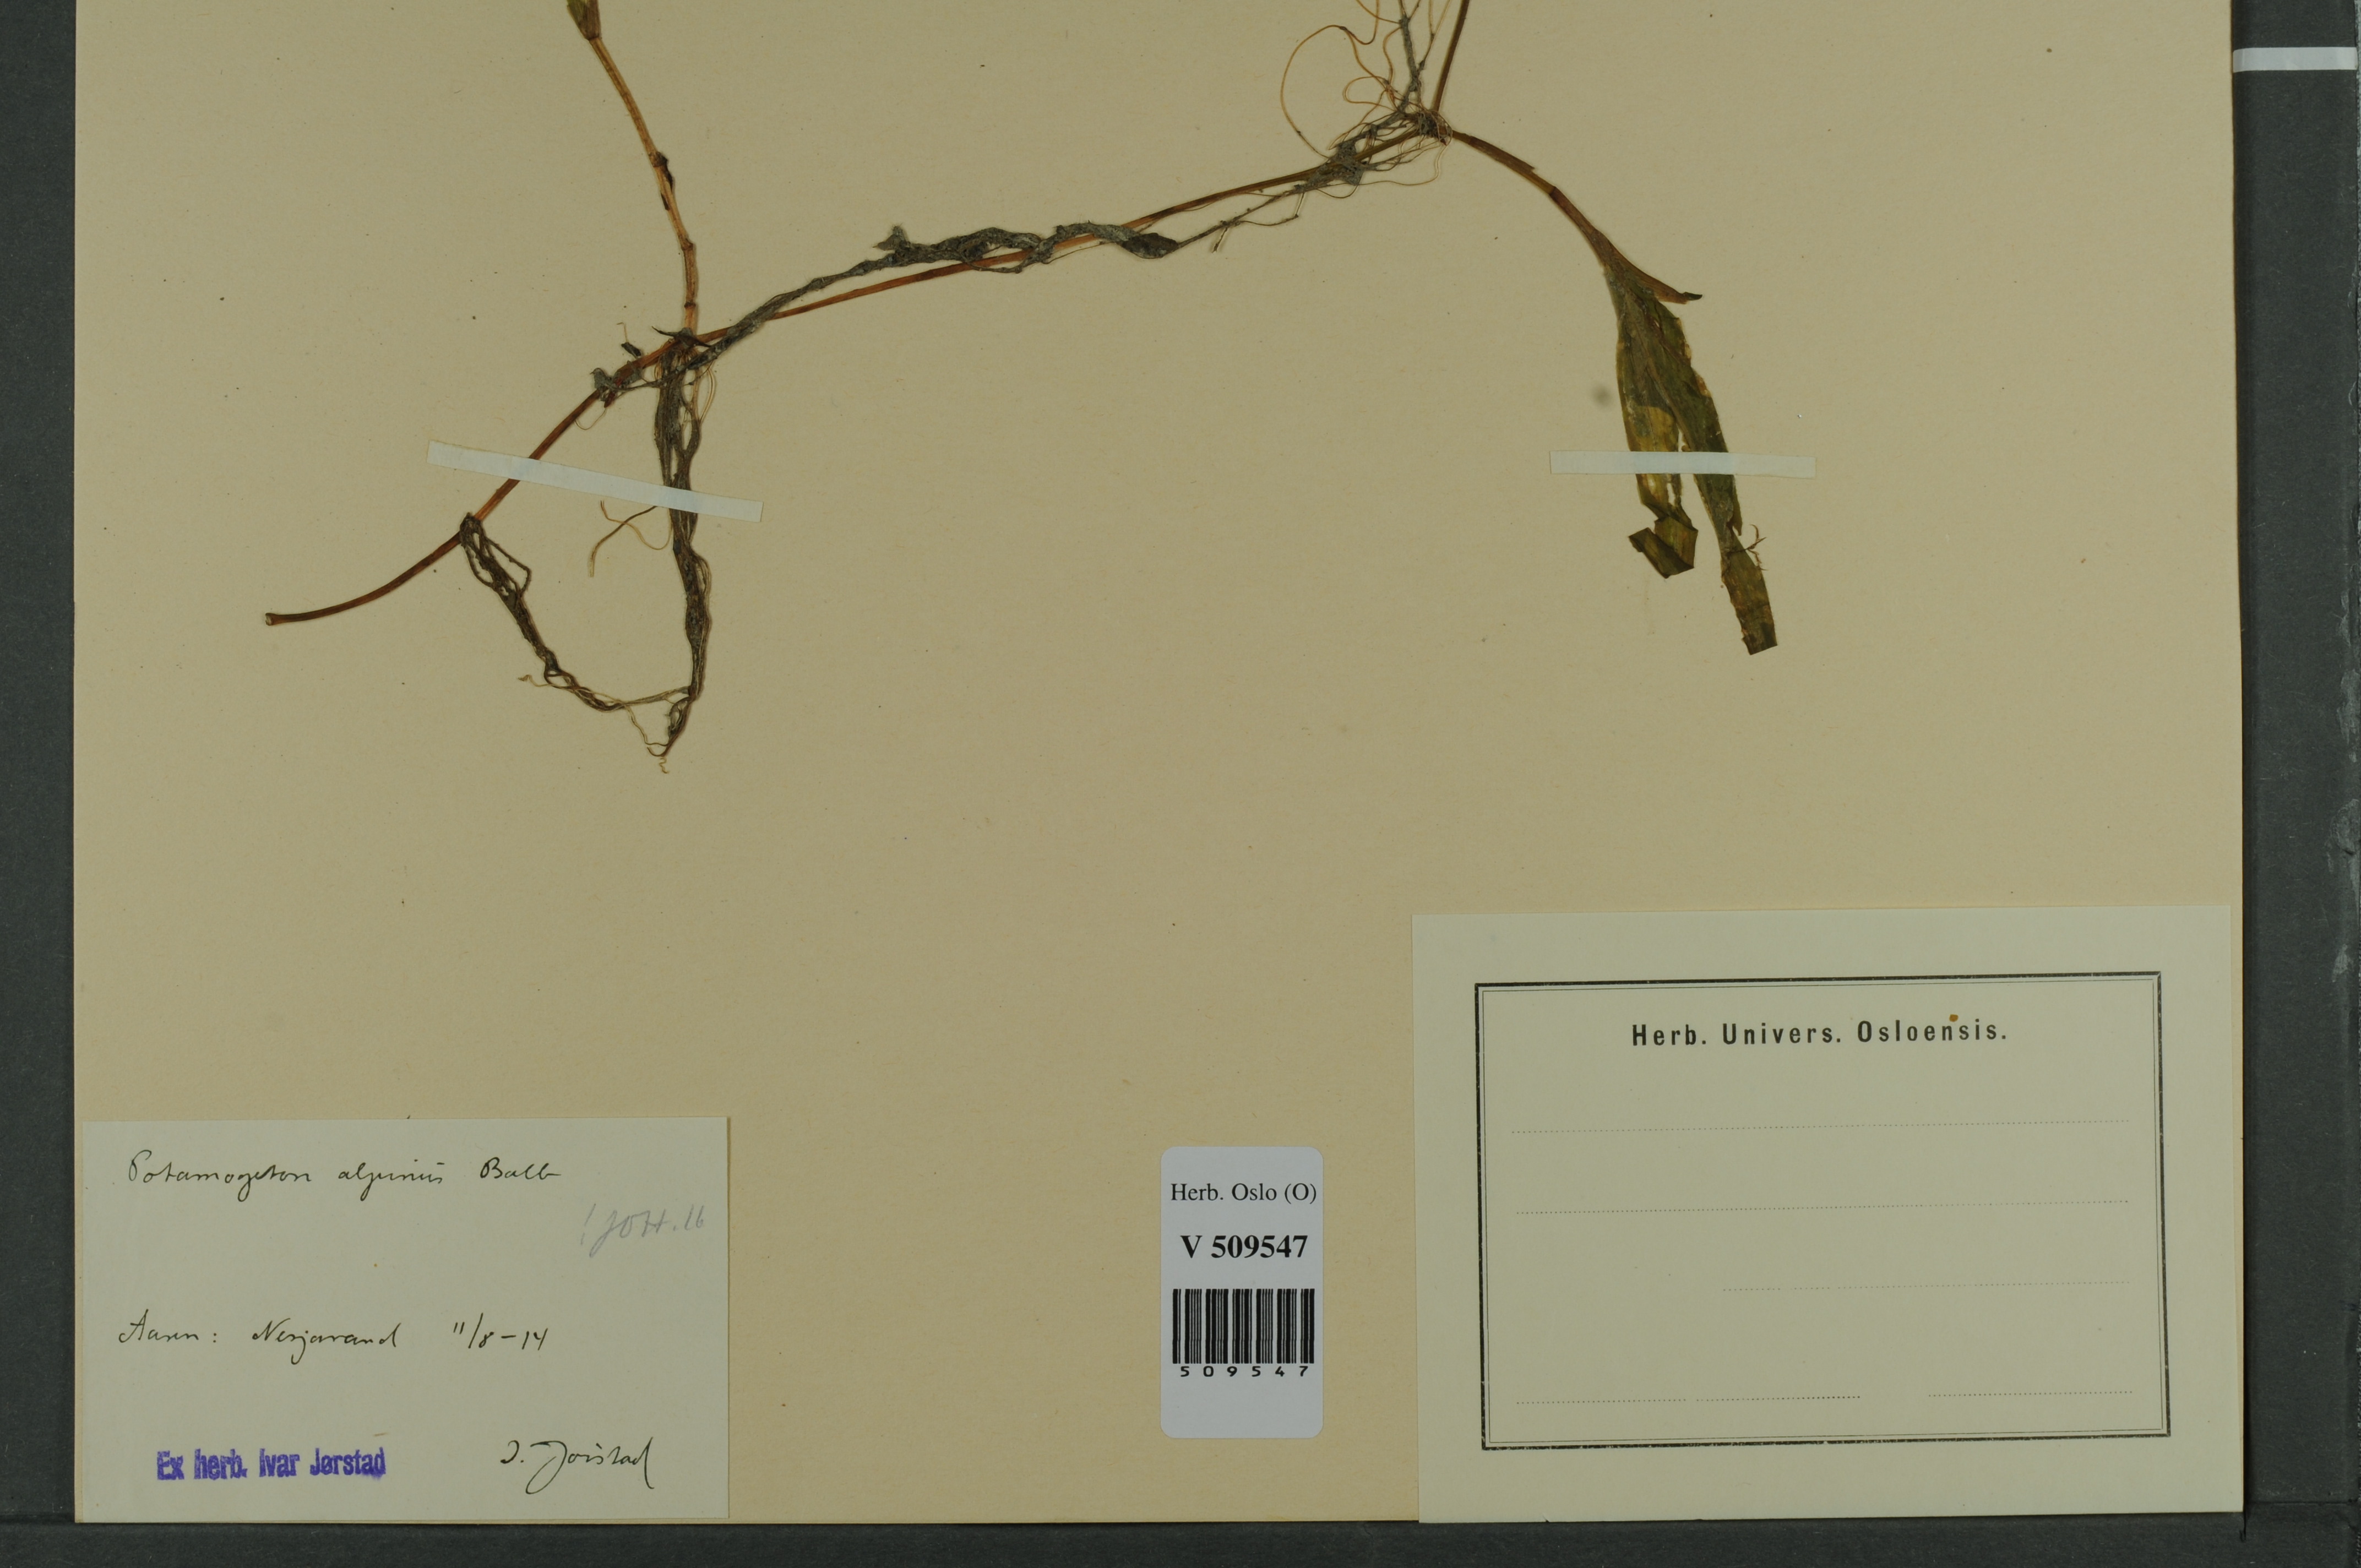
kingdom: Plantae
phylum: Tracheophyta
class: Liliopsida
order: Alismatales
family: Potamogetonaceae
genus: Potamogeton
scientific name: Potamogeton alpinus
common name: Red pondweed
